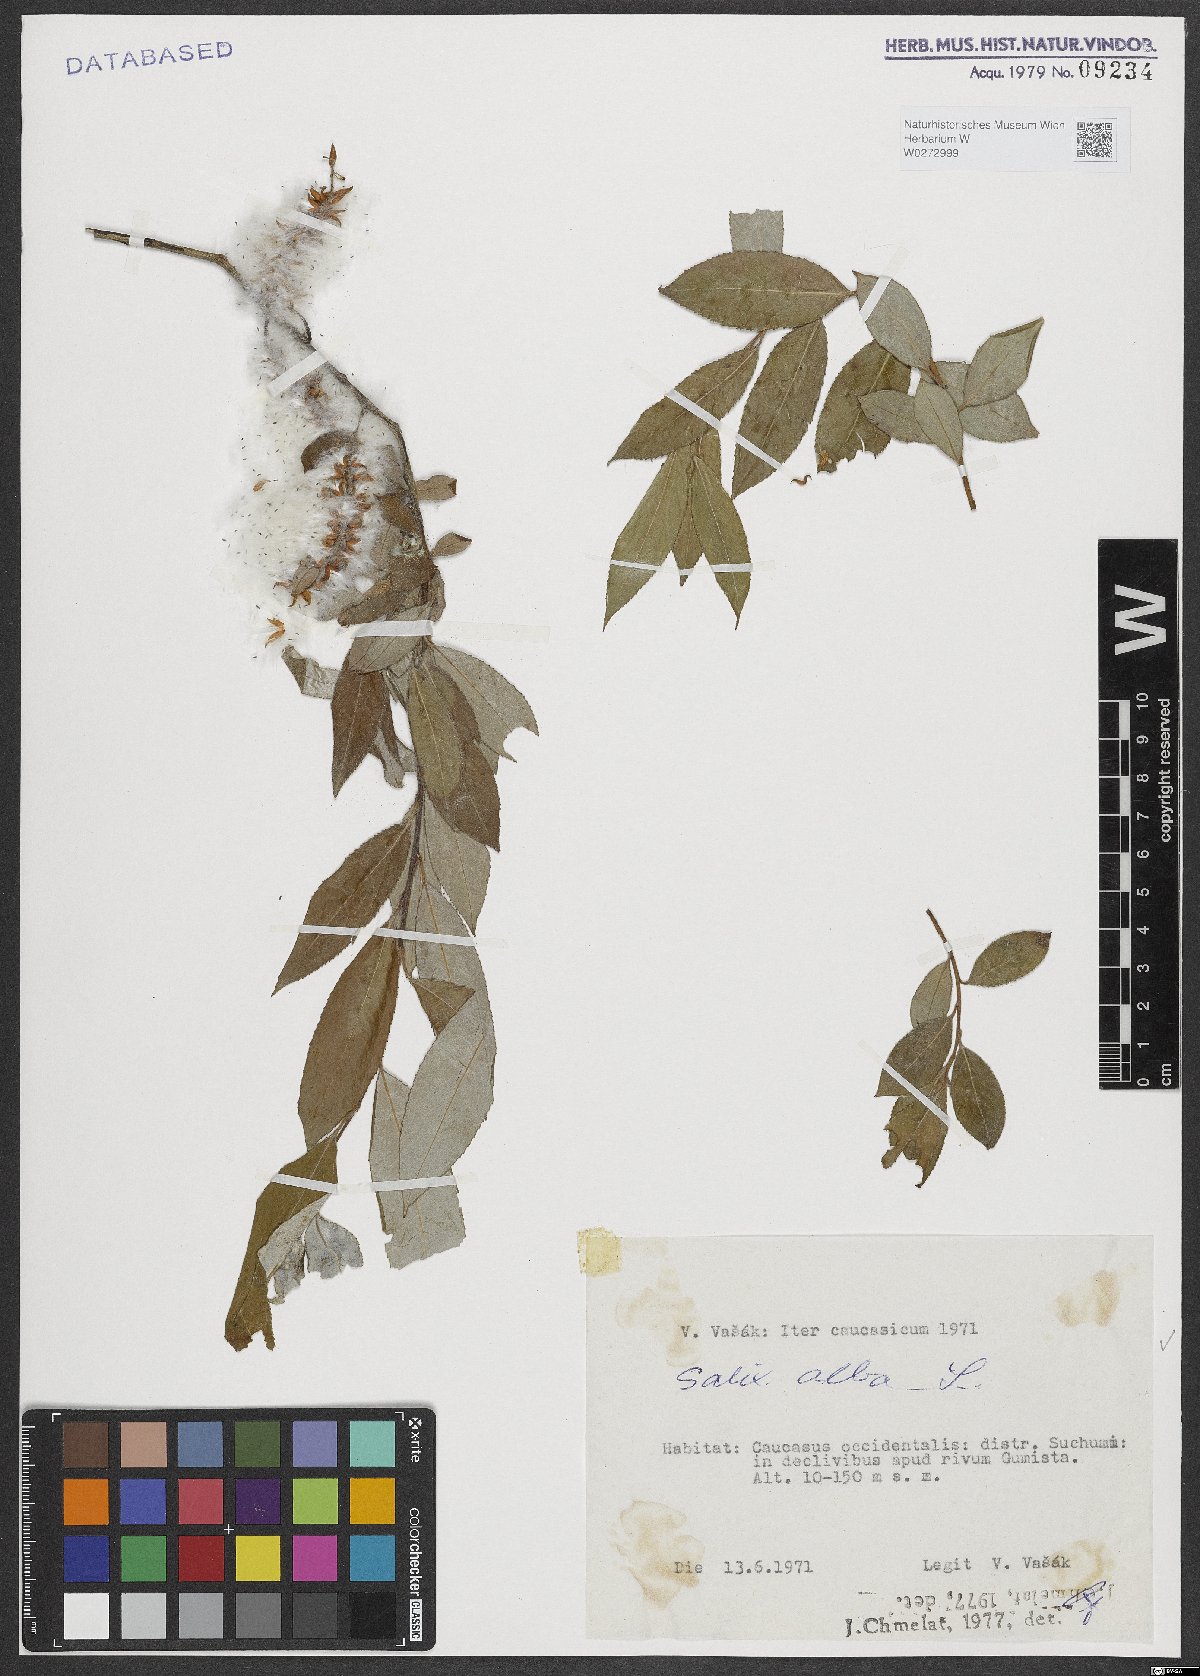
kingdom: Plantae
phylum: Tracheophyta
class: Magnoliopsida
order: Malpighiales
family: Salicaceae
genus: Salix
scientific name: Salix alba
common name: White willow
